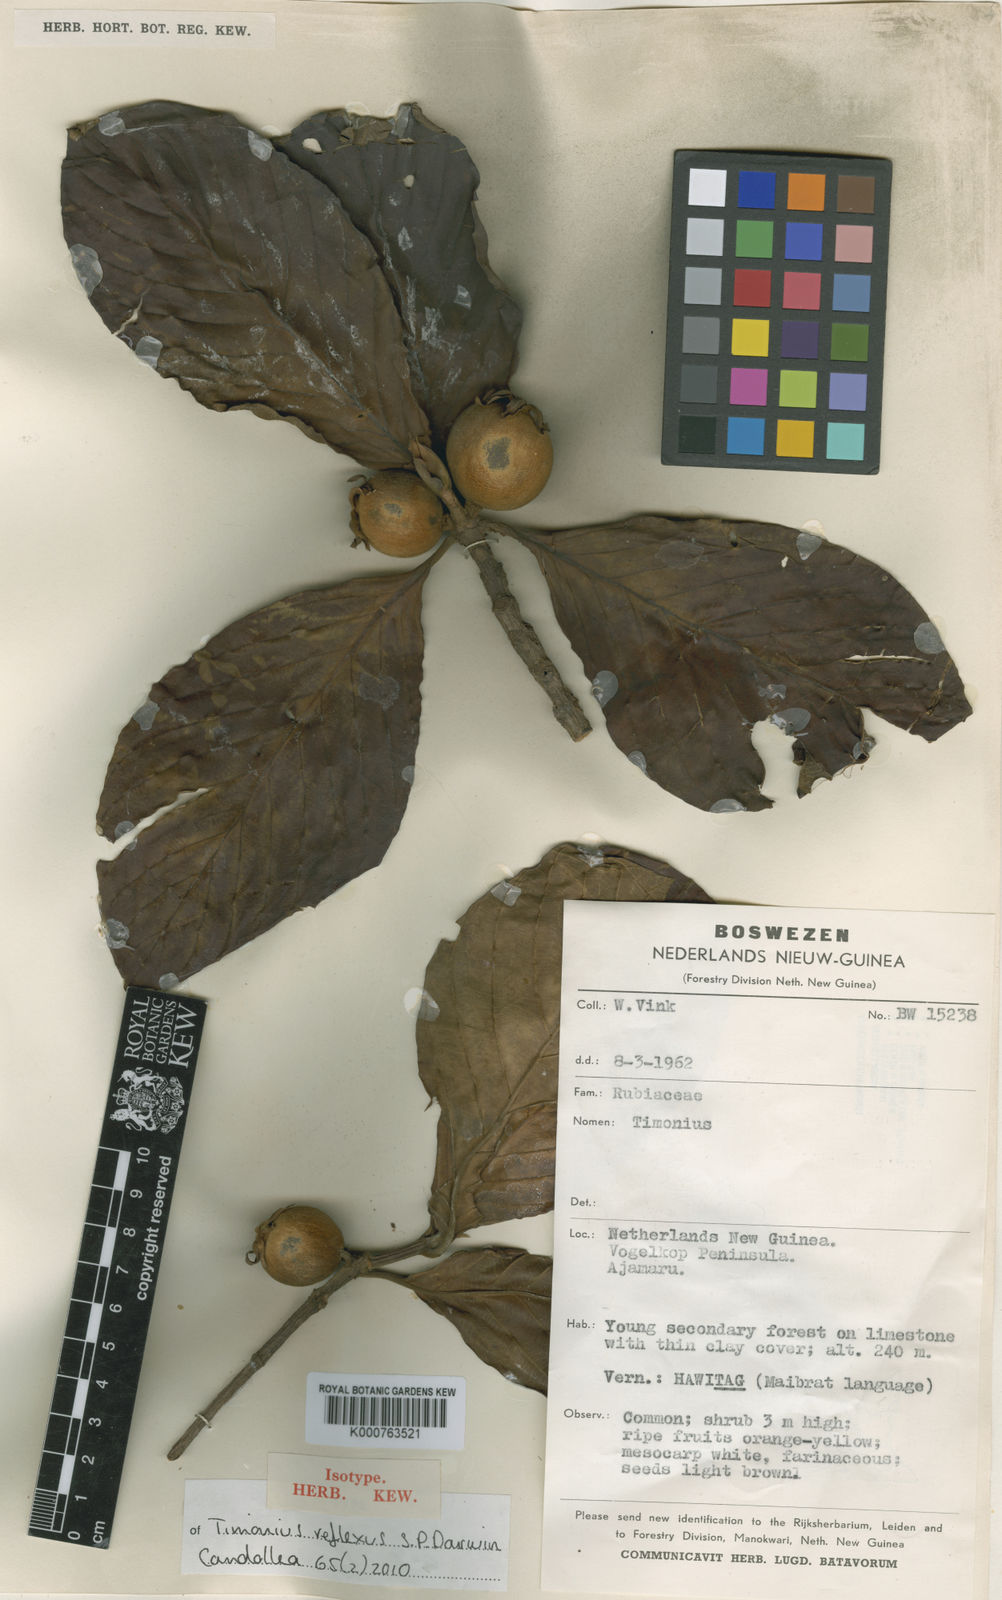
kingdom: Plantae
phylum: Tracheophyta
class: Magnoliopsida
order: Gentianales
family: Rubiaceae
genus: Timonius
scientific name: Timonius reflexus
